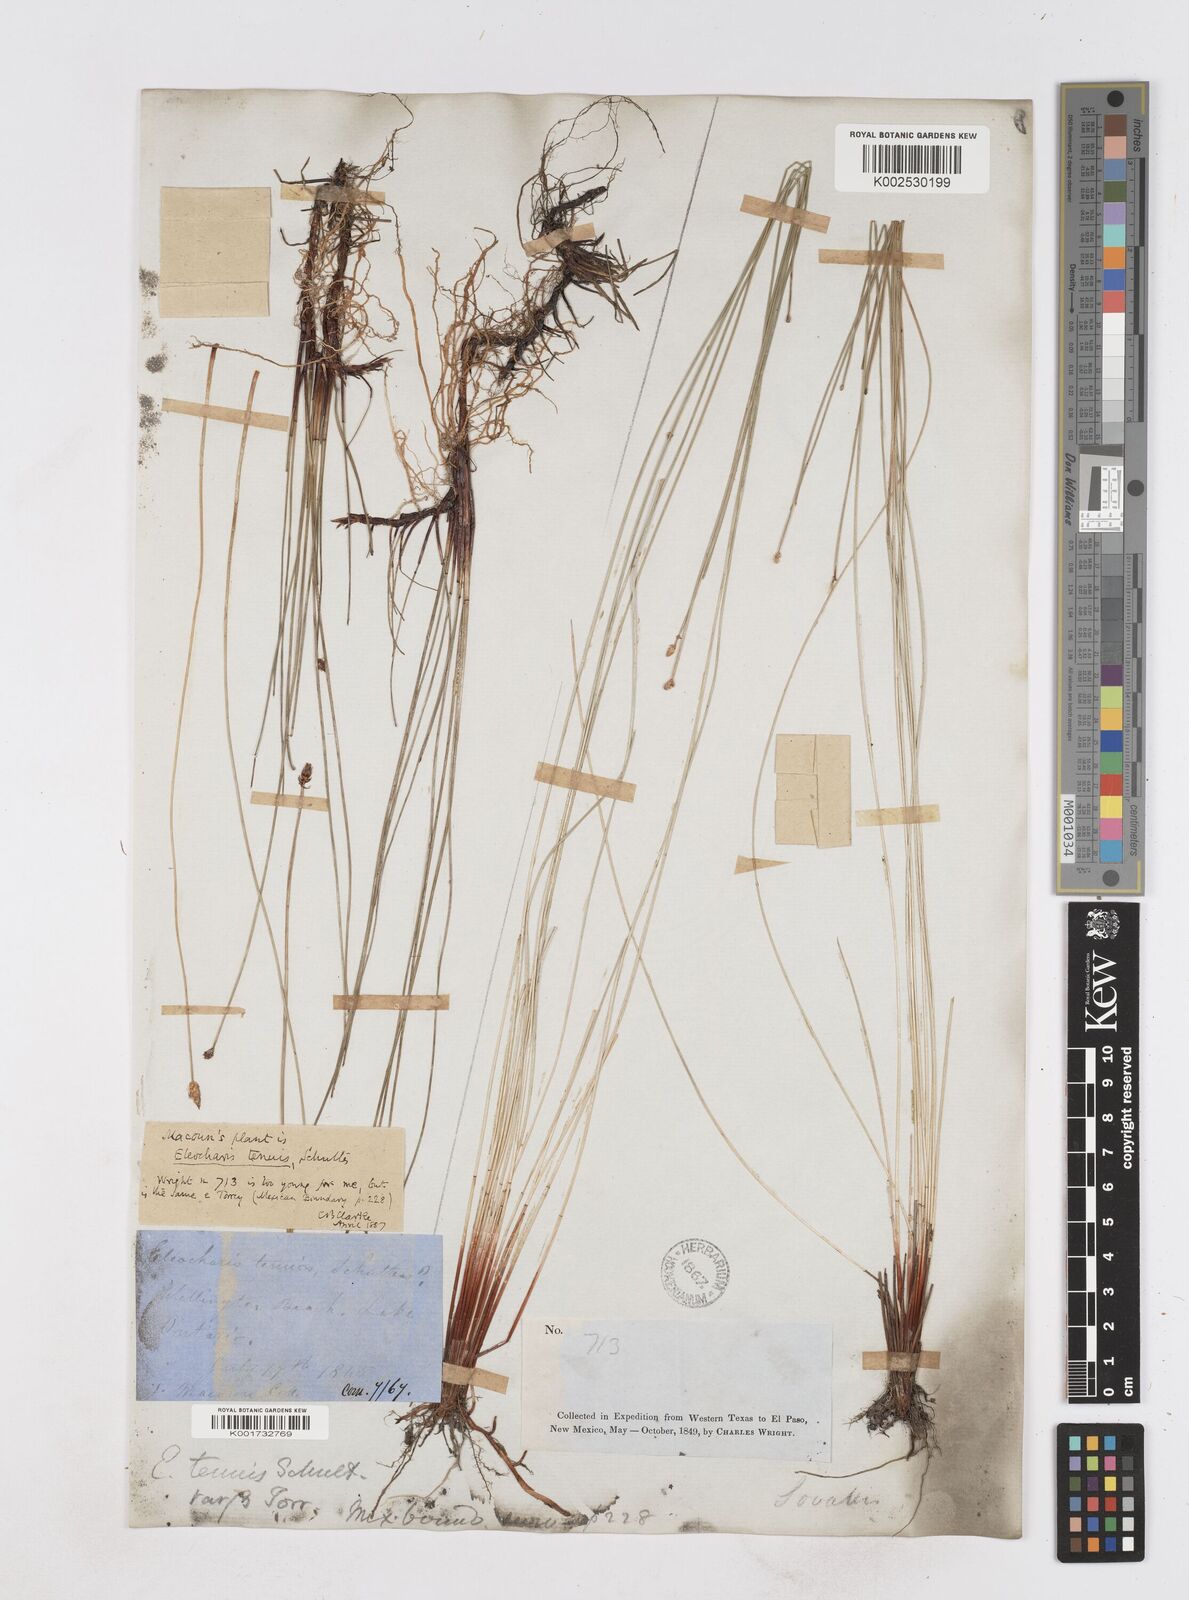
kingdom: Plantae
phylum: Tracheophyta
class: Liliopsida
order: Poales
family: Cyperaceae
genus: Eleocharis
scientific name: Eleocharis tenuis
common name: Dog's hair
